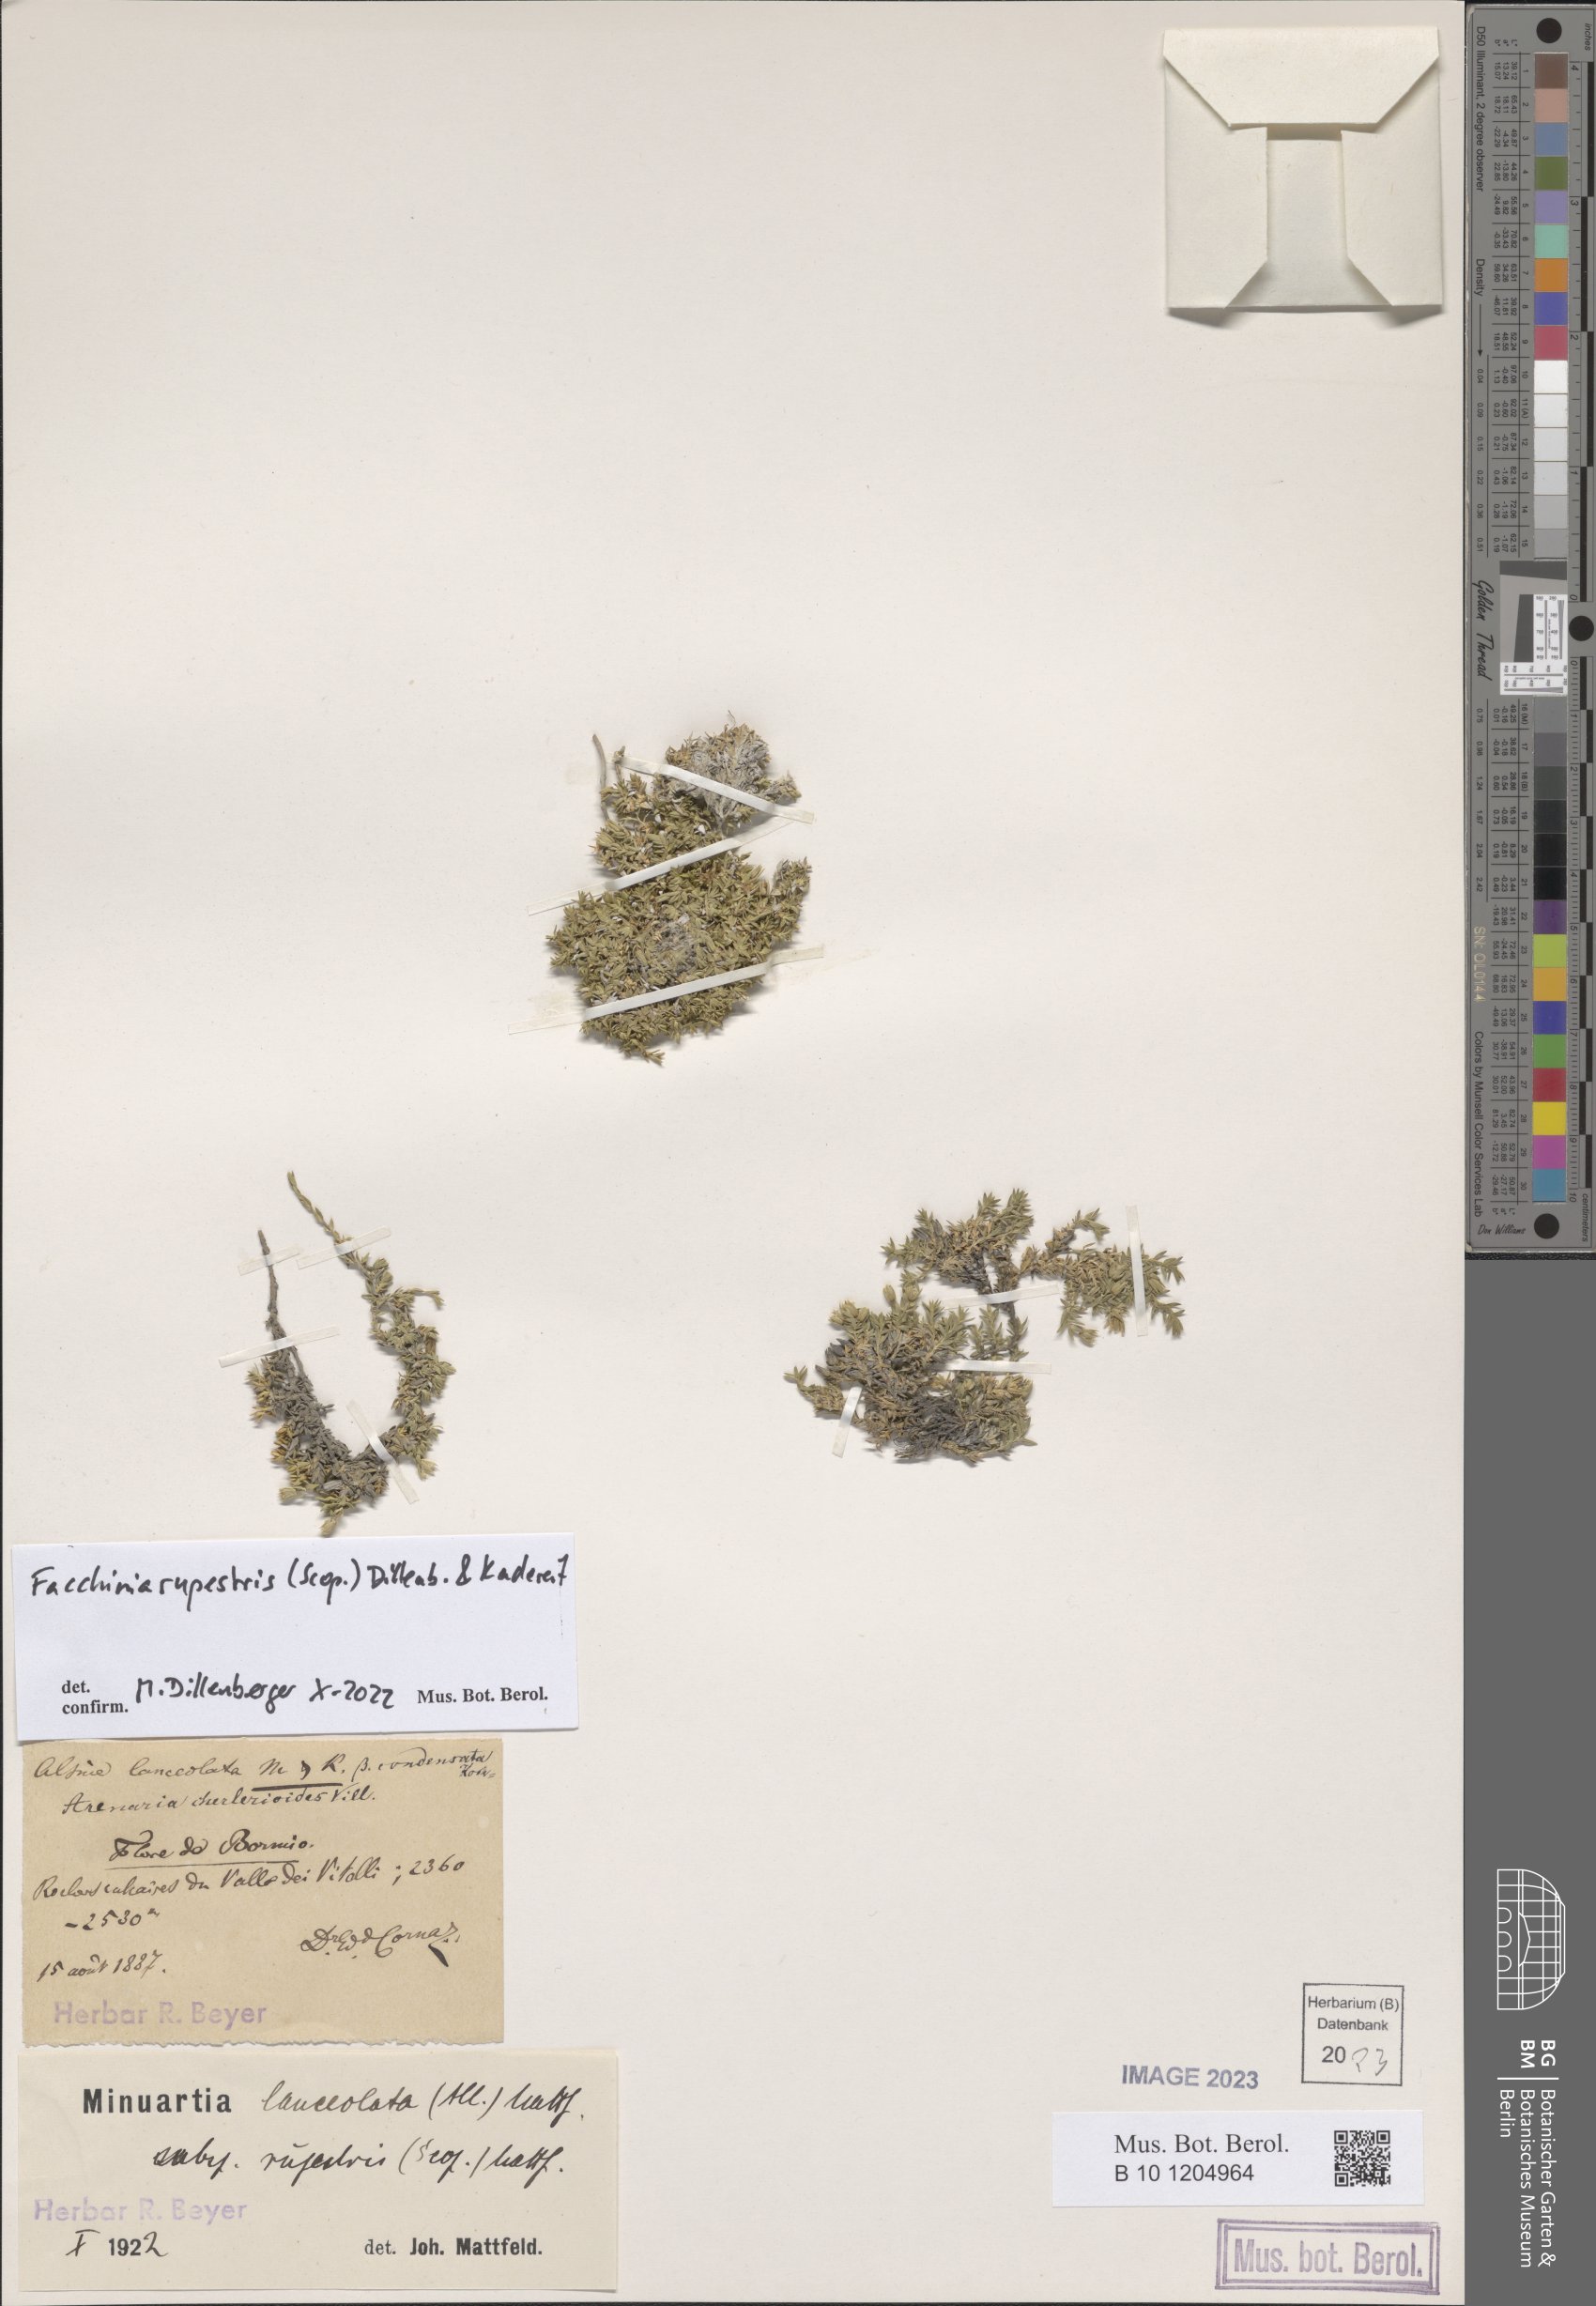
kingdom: Plantae
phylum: Tracheophyta
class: Magnoliopsida
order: Caryophyllales
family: Caryophyllaceae
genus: Facchinia
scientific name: Facchinia rupestris
